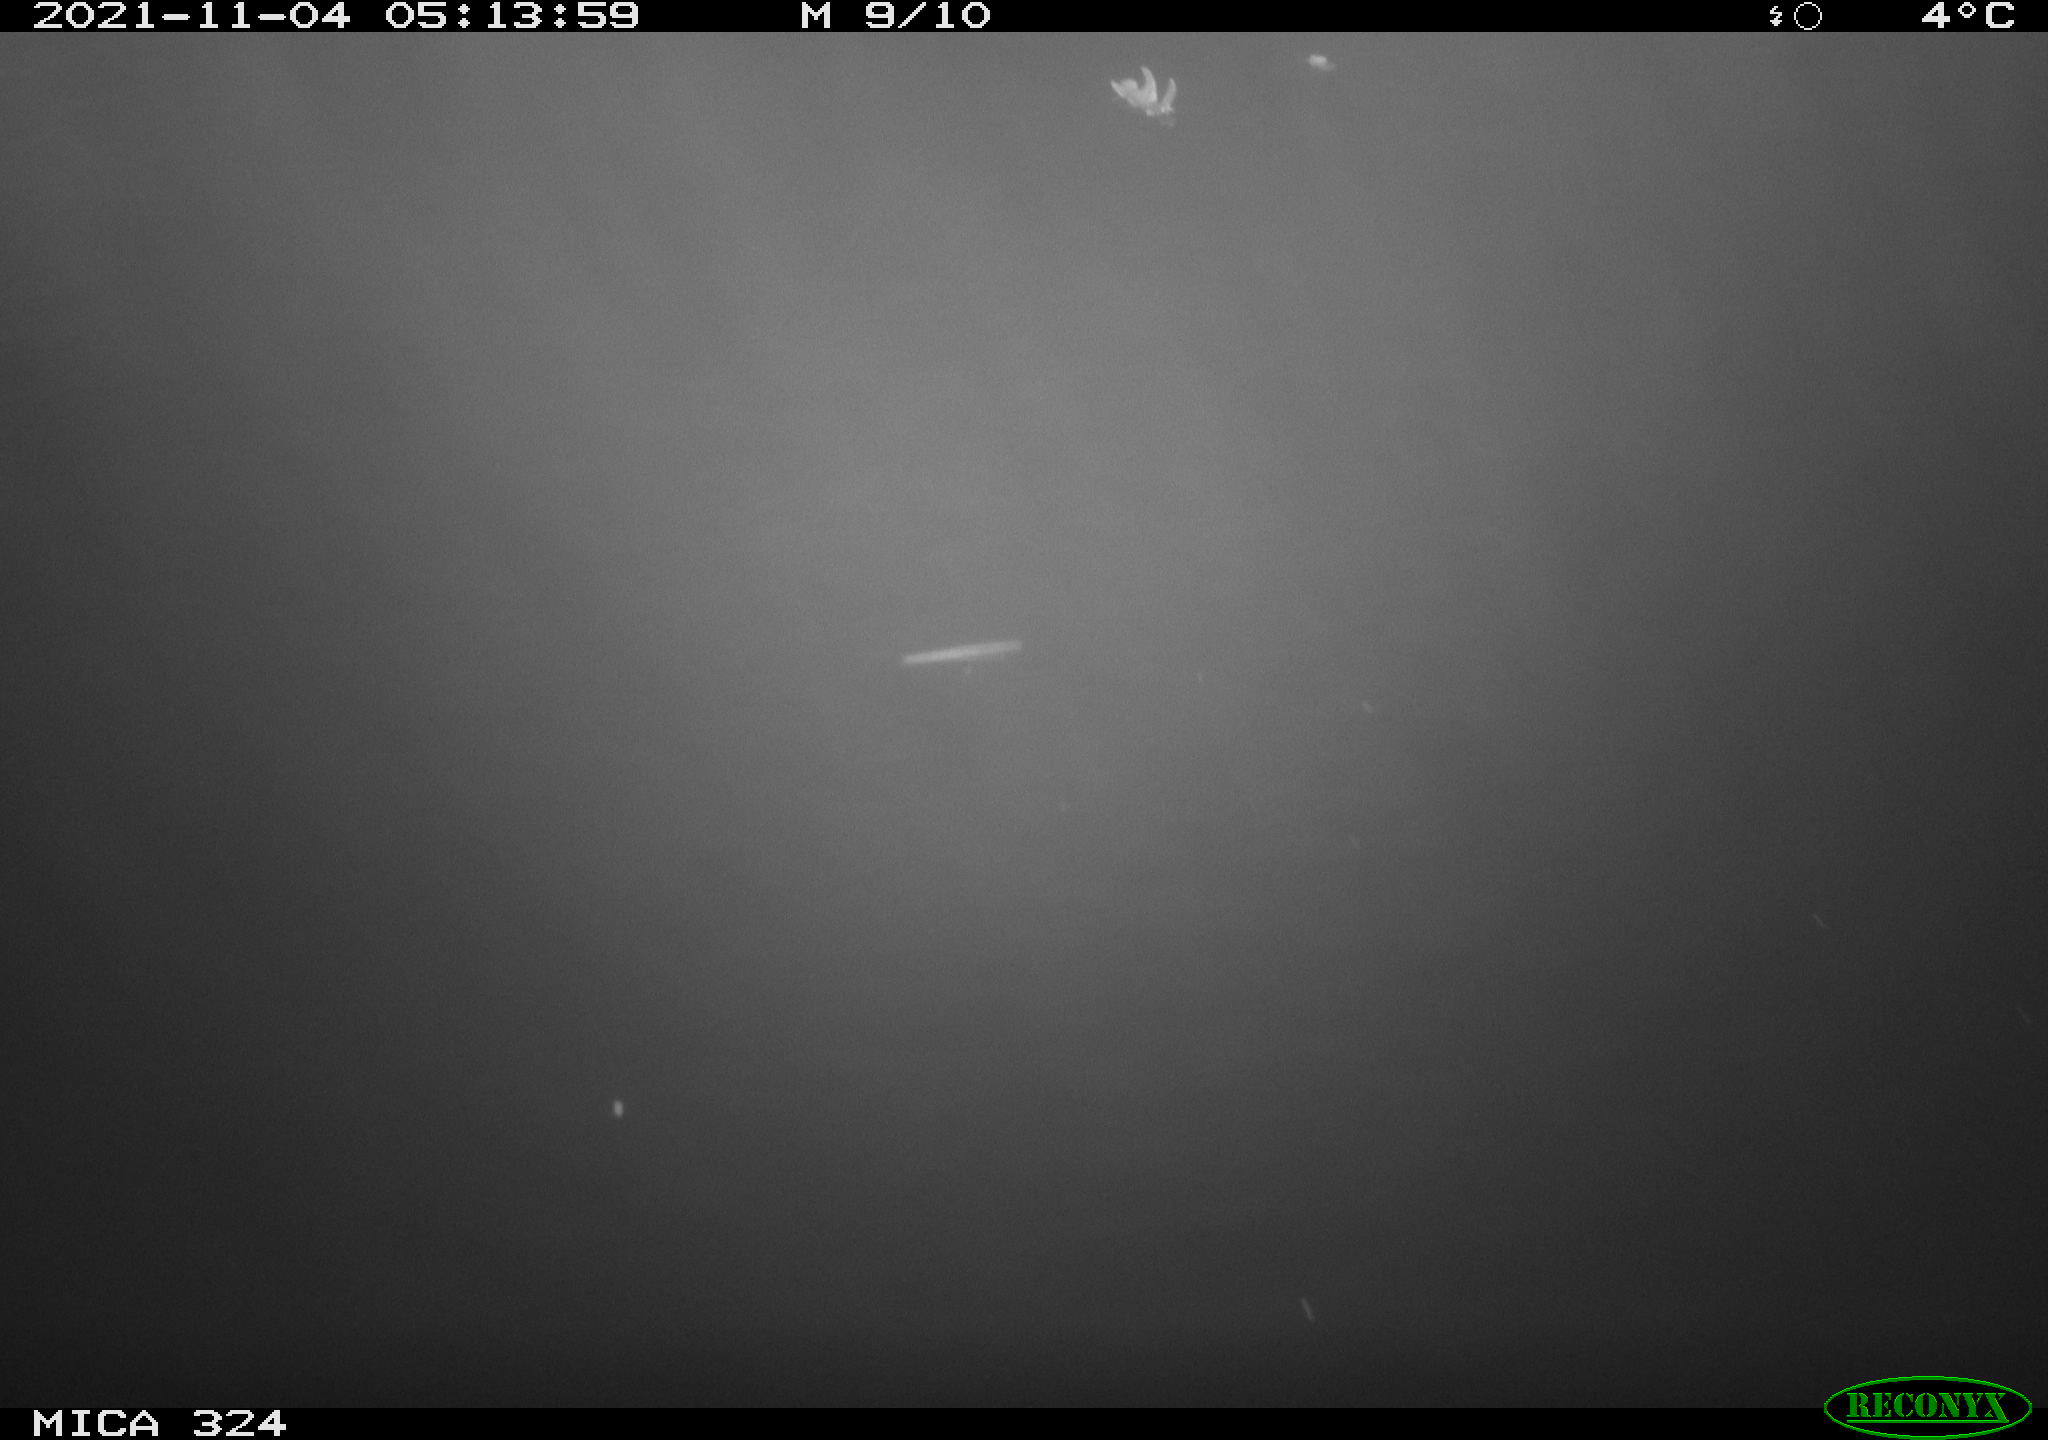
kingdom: Animalia
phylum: Chordata
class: Mammalia
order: Rodentia
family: Cricetidae
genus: Ondatra
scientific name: Ondatra zibethicus
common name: Muskrat
